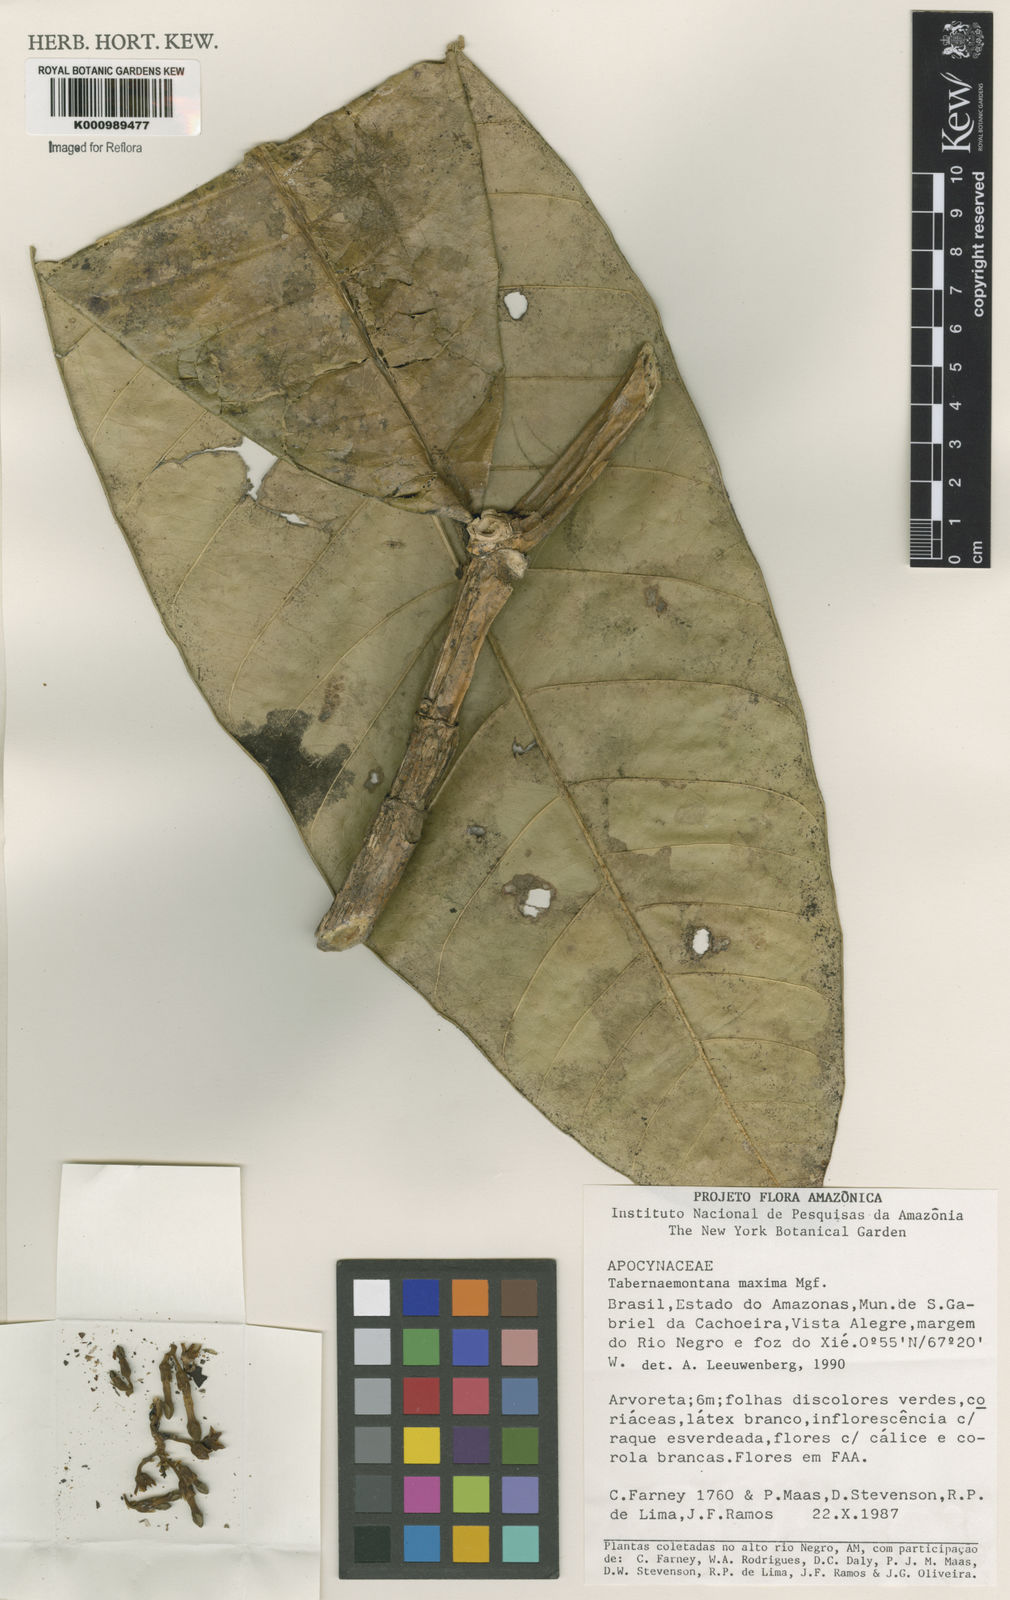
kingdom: Plantae
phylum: Tracheophyta
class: Magnoliopsida
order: Gentianales
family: Apocynaceae
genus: Tabernaemontana
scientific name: Tabernaemontana maxima
